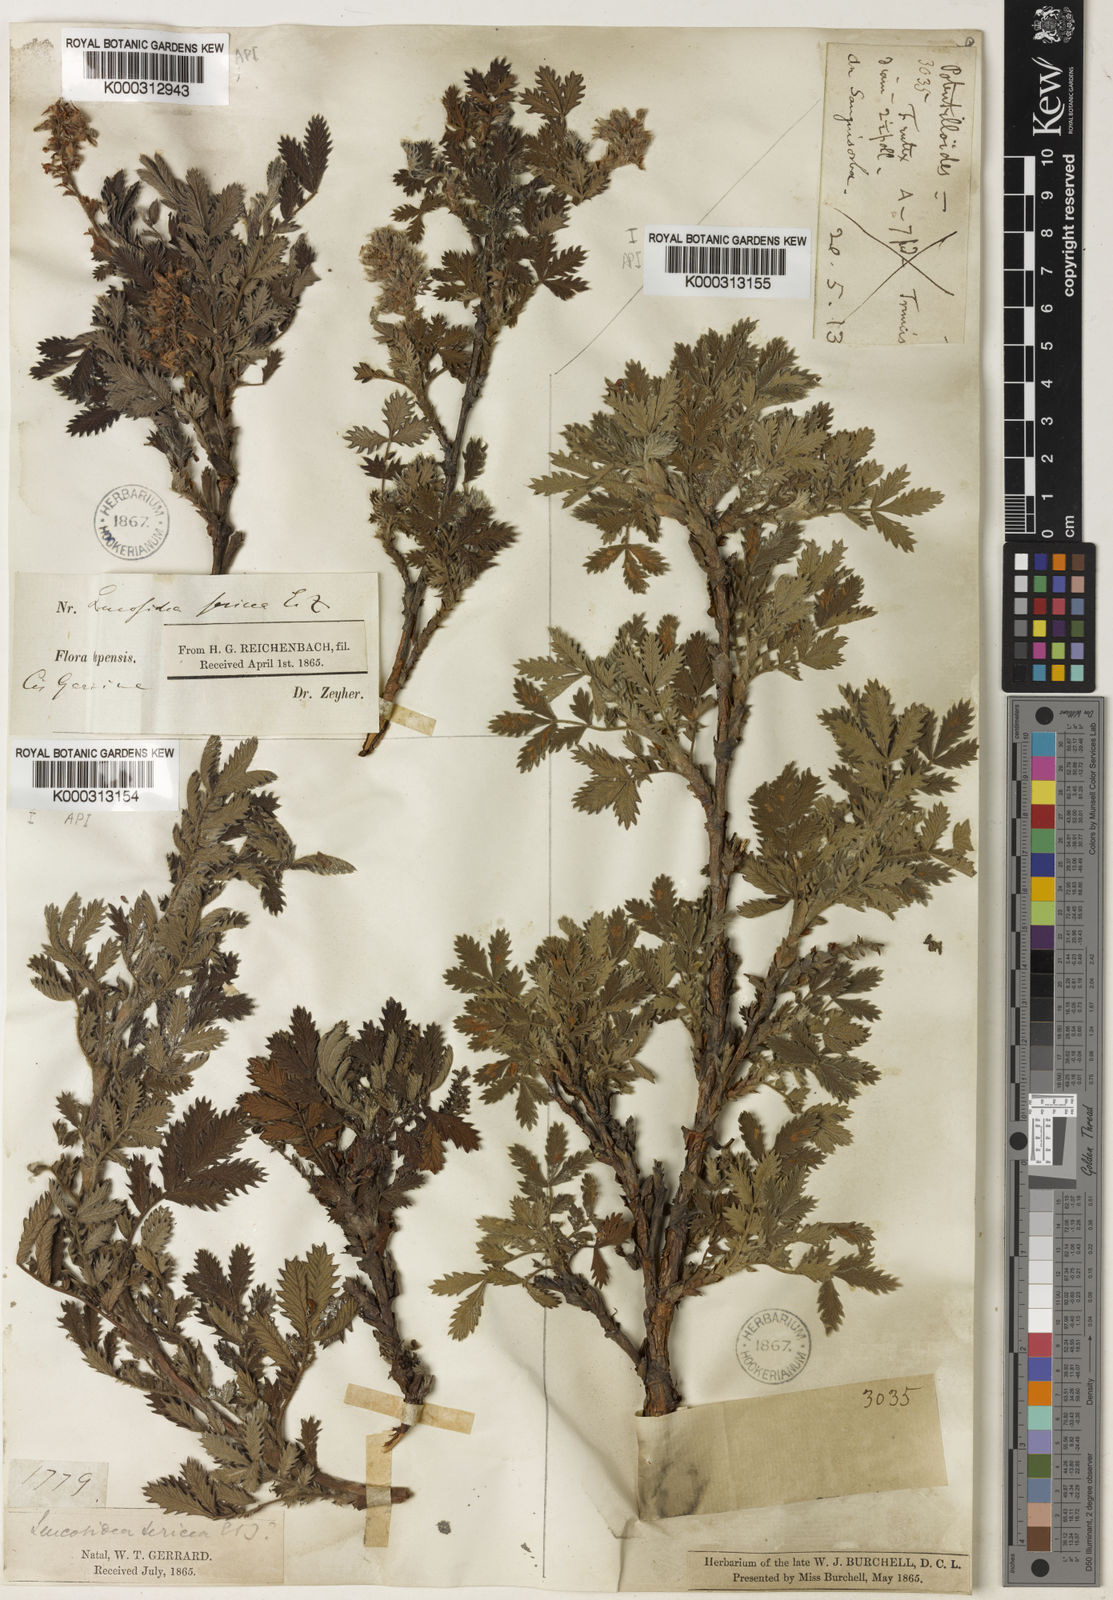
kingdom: Plantae
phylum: Tracheophyta
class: Magnoliopsida
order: Rosales
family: Rosaceae
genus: Leucosidea
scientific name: Leucosidea sericea
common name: Oldwood
